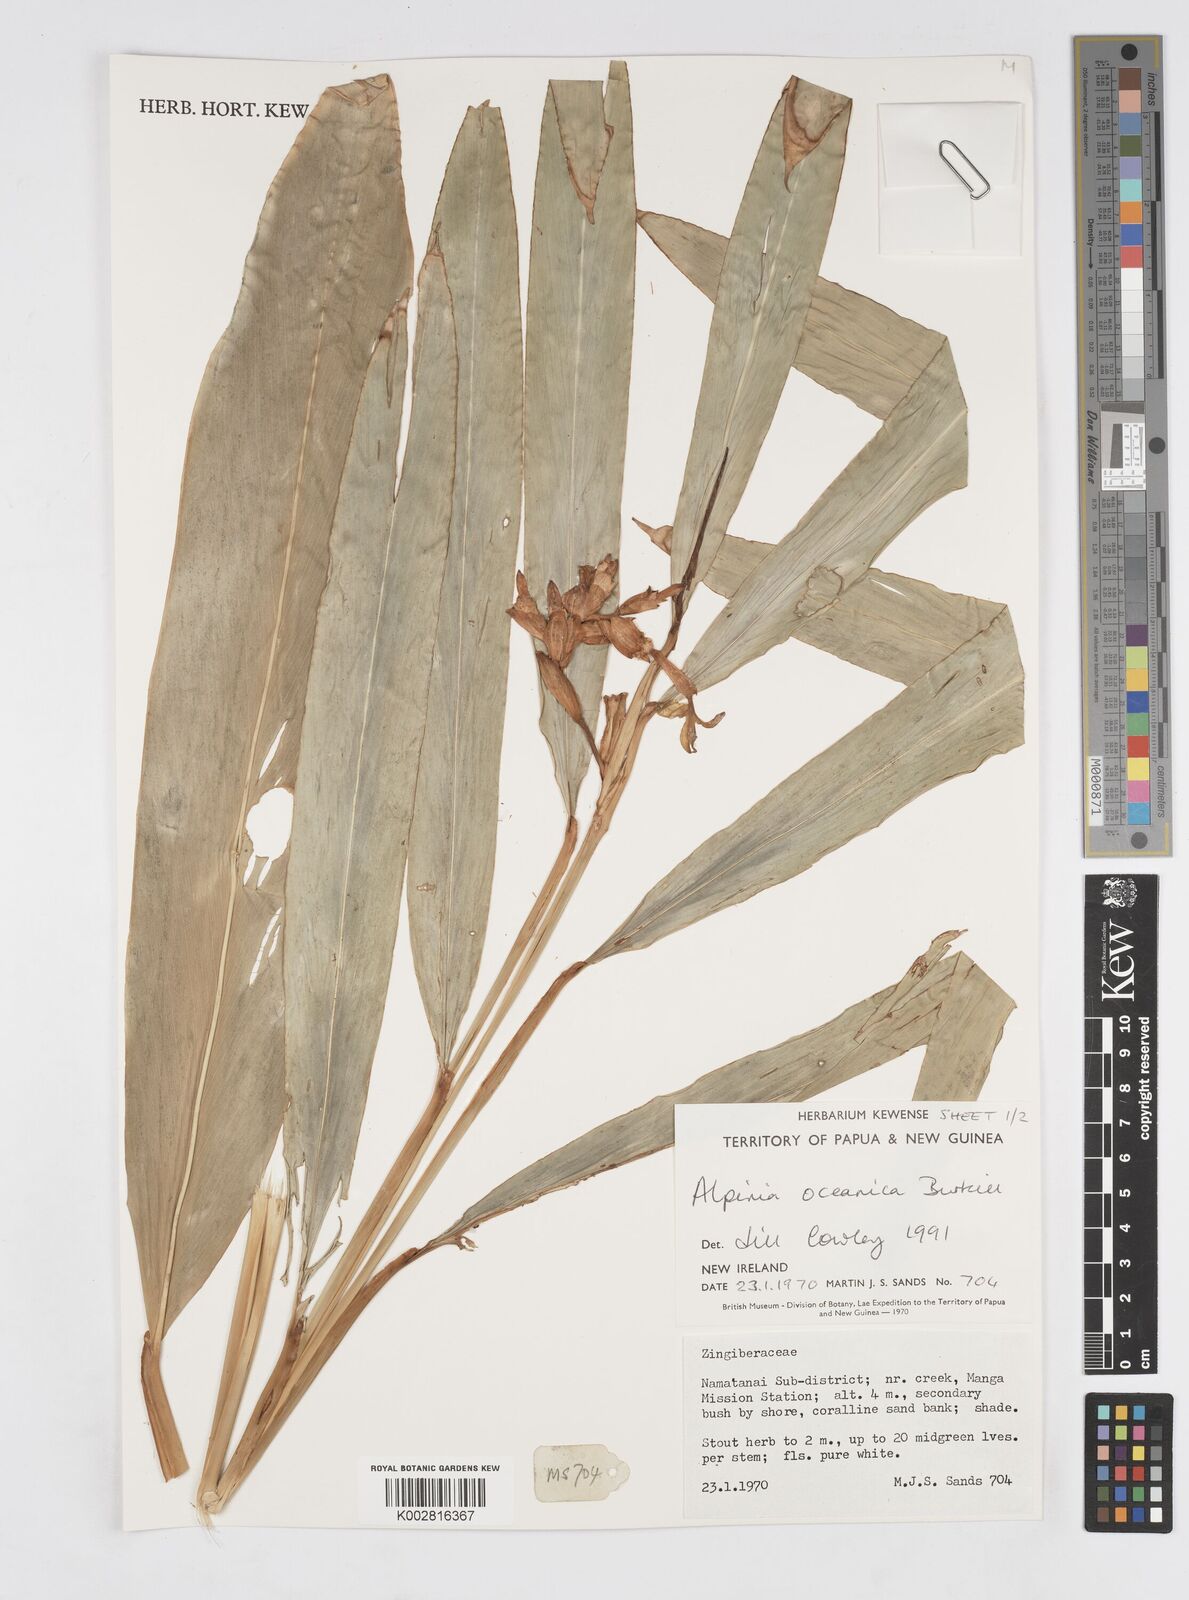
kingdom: Plantae
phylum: Tracheophyta
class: Liliopsida
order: Zingiberales
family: Zingiberaceae
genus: Alpinia
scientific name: Alpinia oceanica
